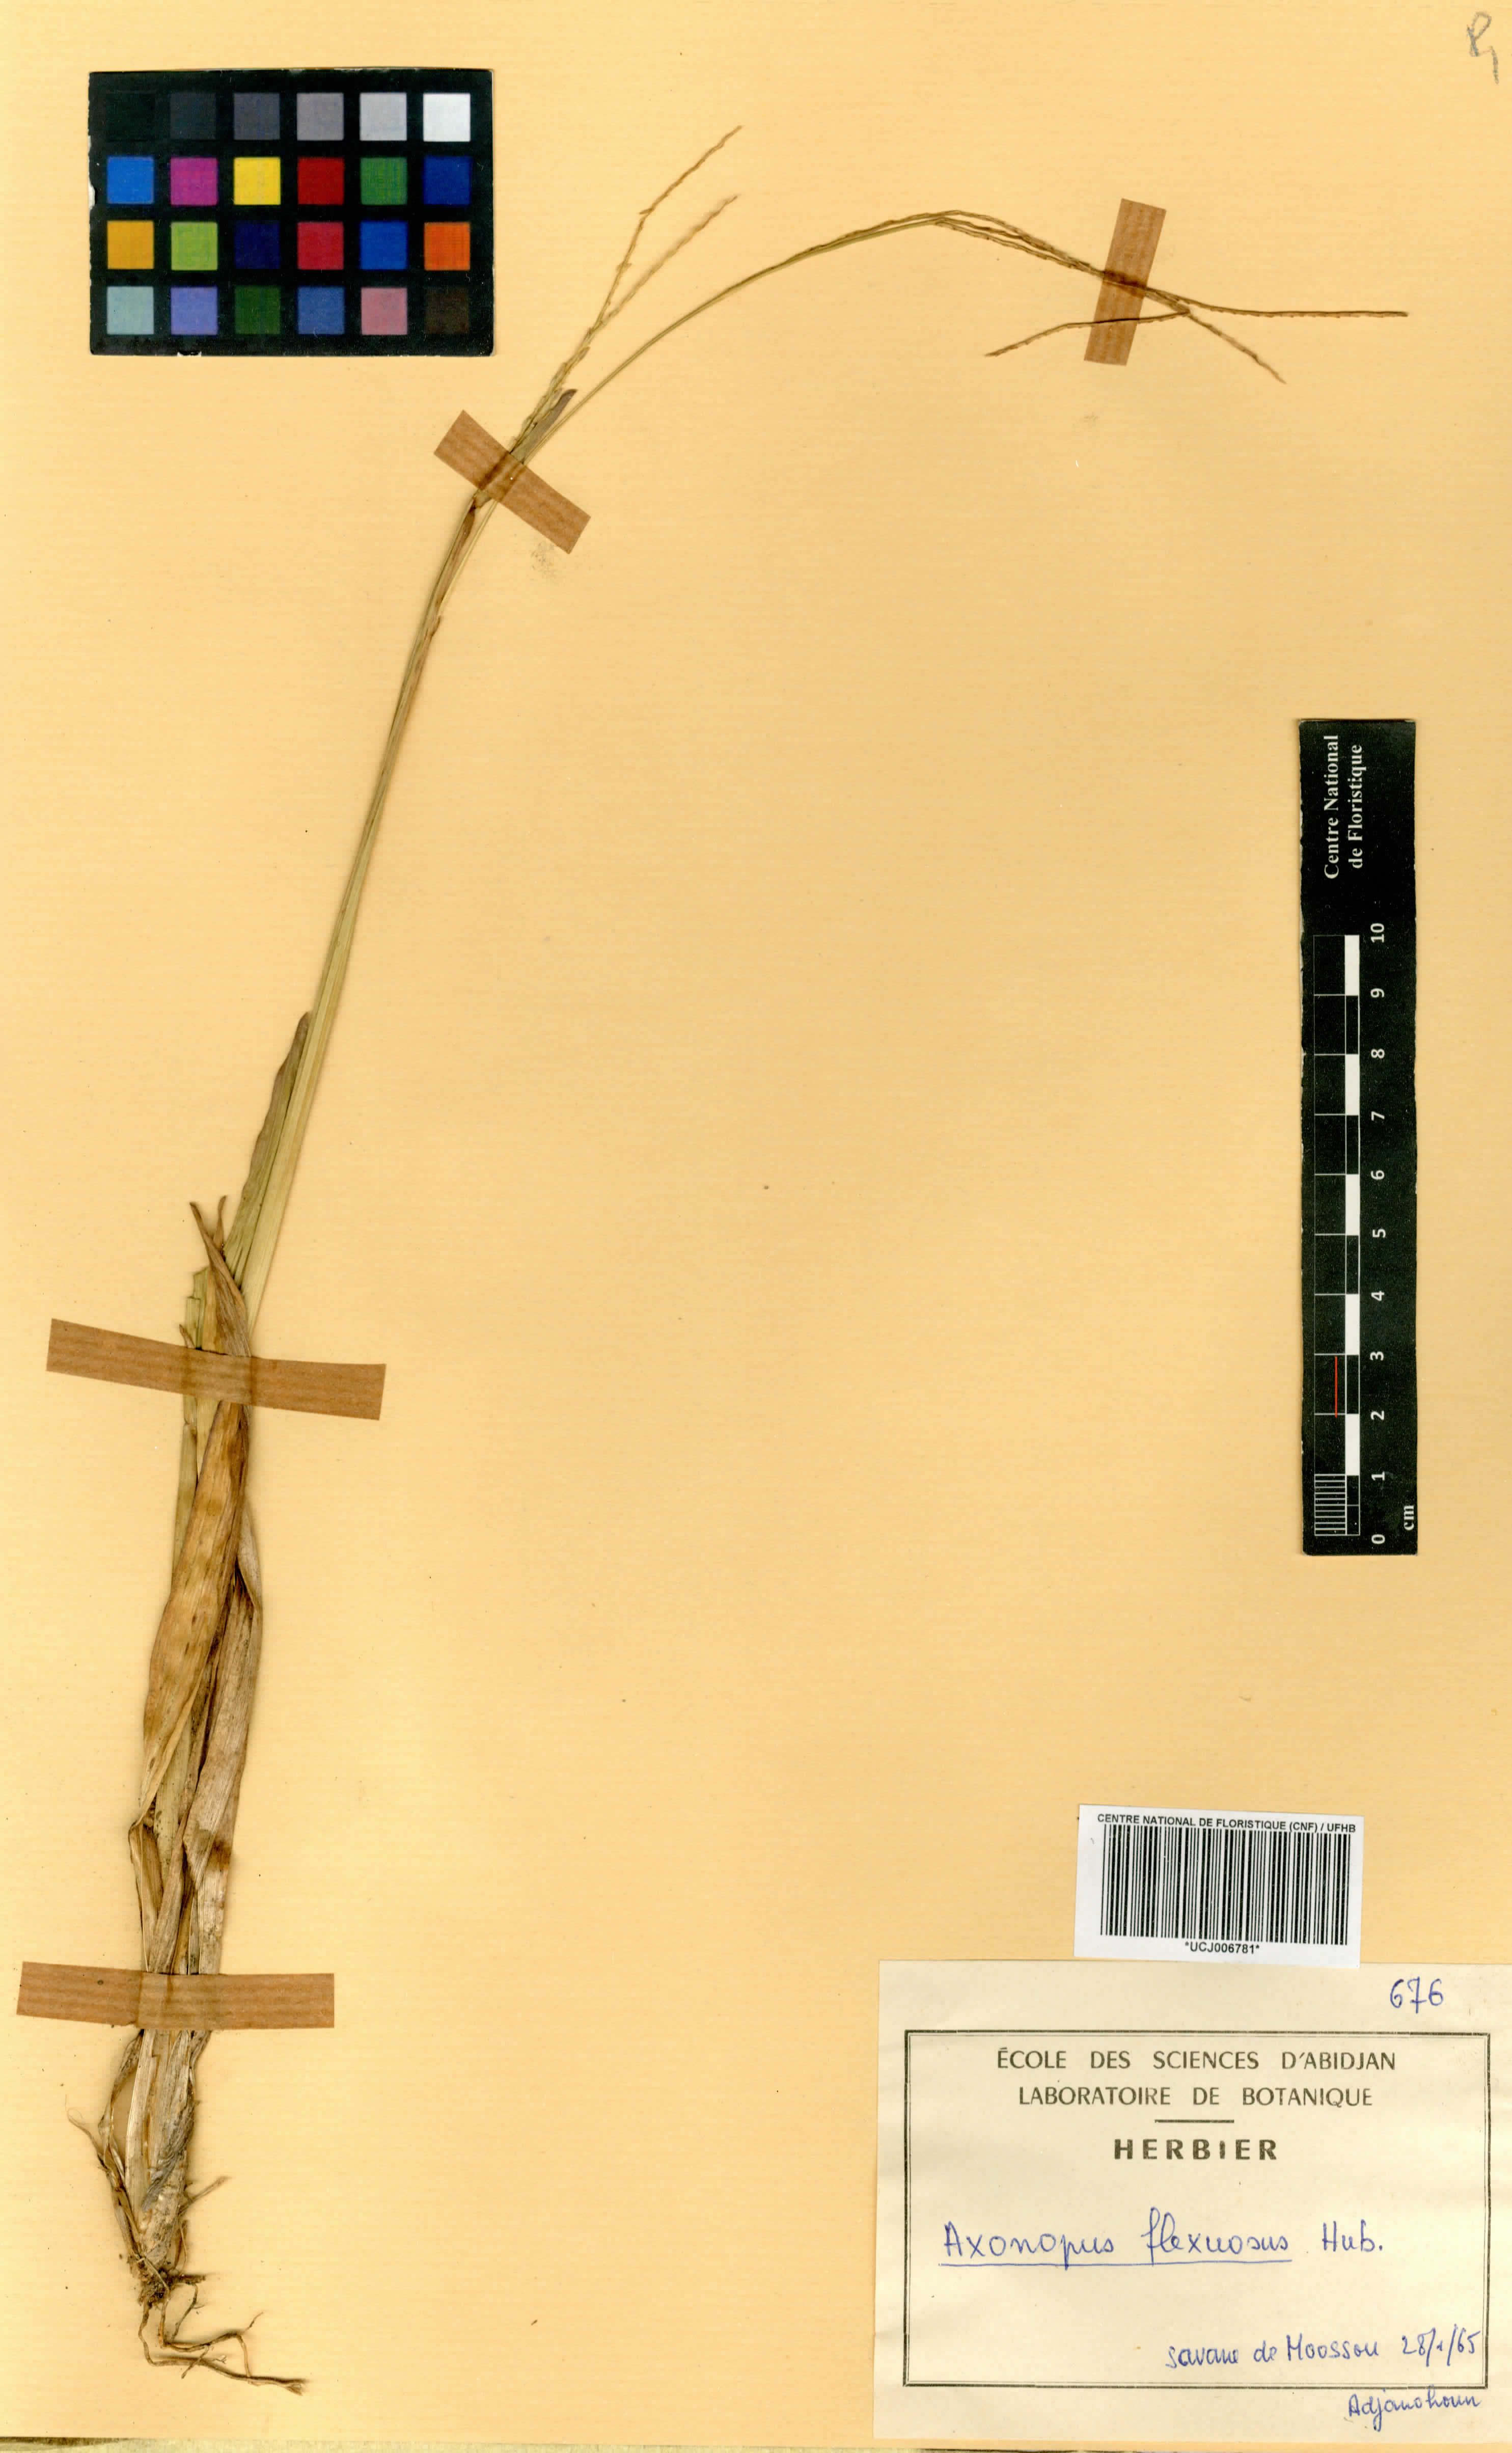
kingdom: Plantae
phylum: Tracheophyta
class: Liliopsida
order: Poales
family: Poaceae
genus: Axonopus
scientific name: Axonopus flexuosus
